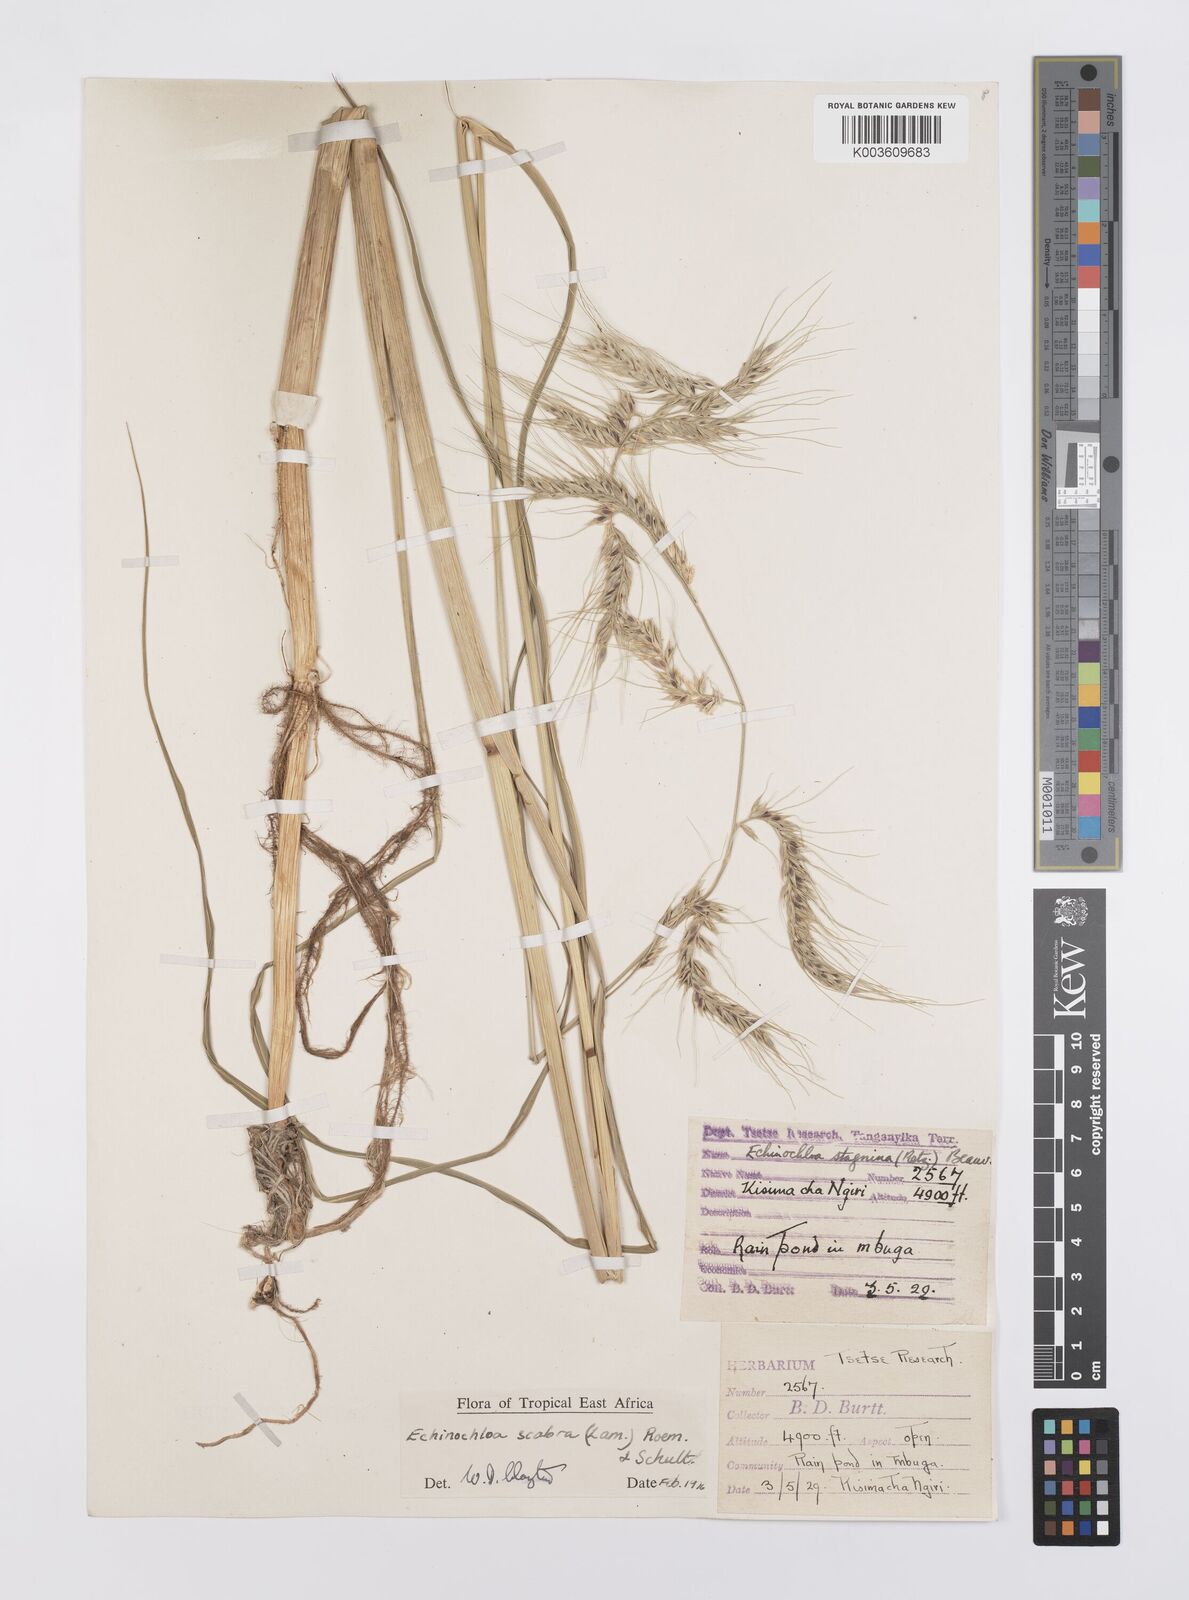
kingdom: Plantae
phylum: Tracheophyta
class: Liliopsida
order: Poales
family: Poaceae
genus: Echinochloa
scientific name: Echinochloa stagnina
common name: Burgu grass
